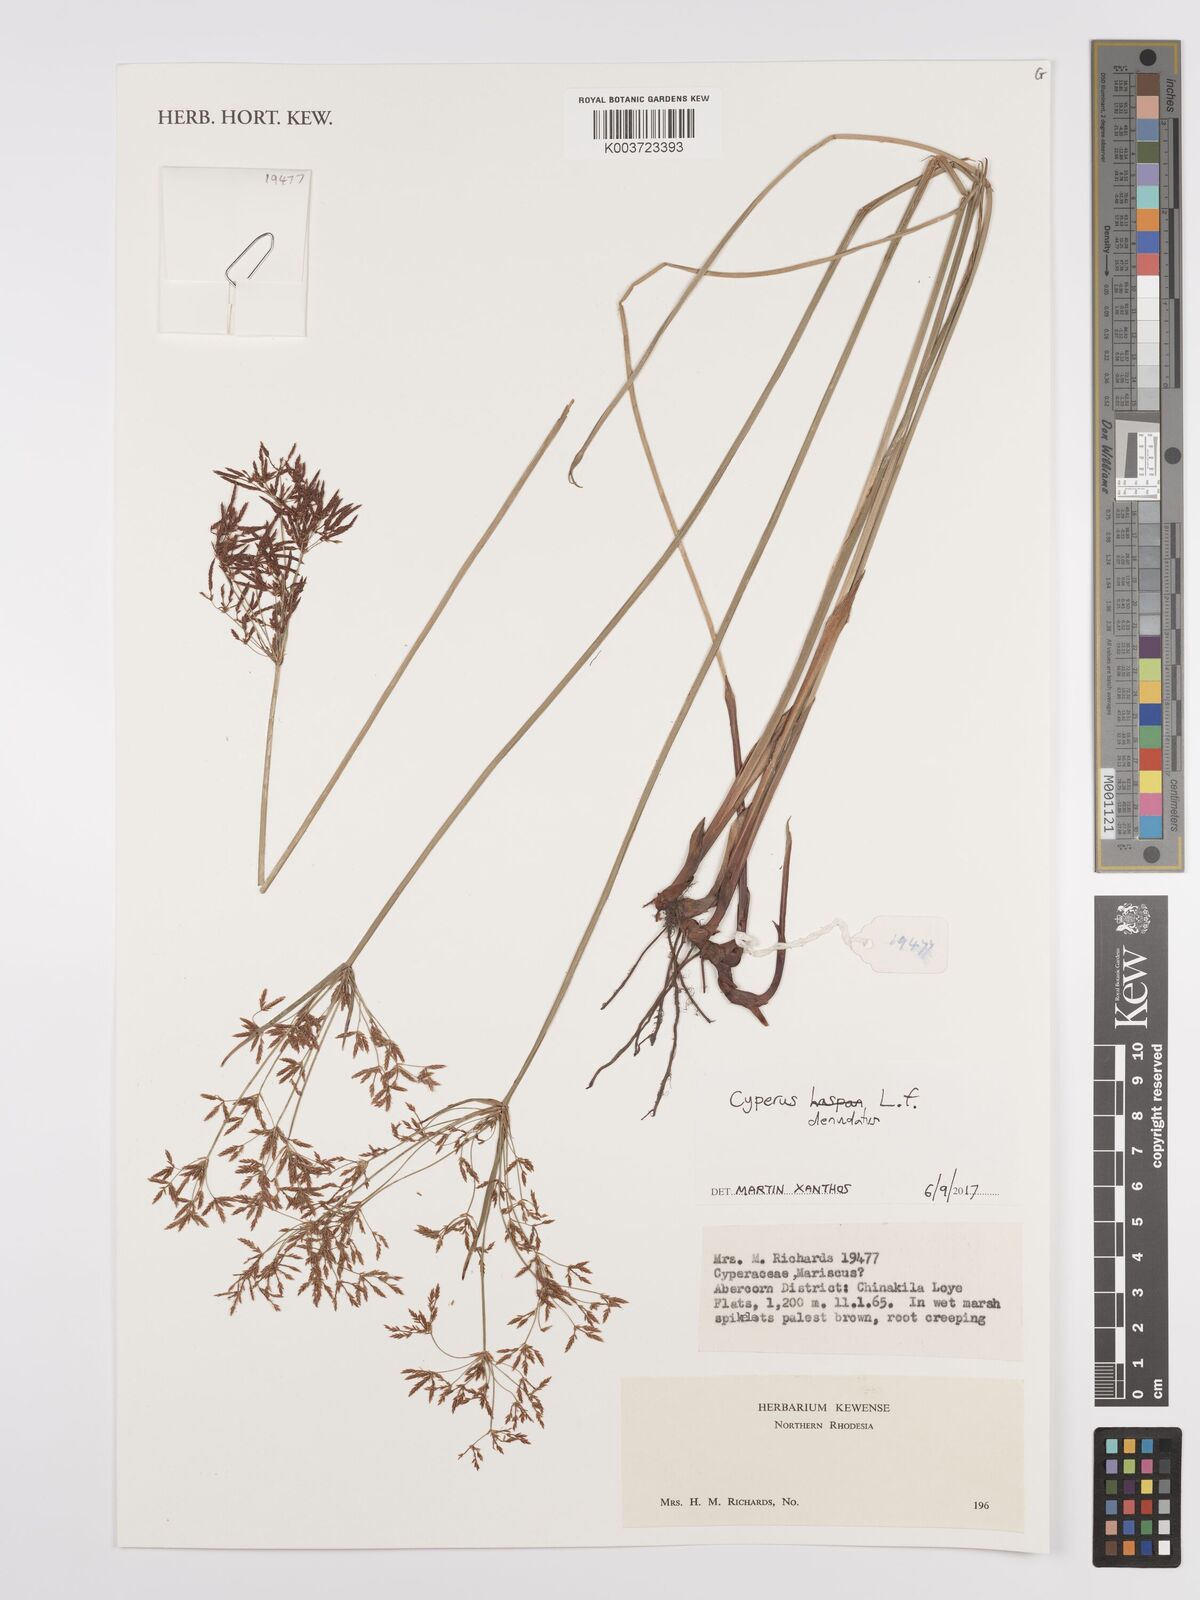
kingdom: Plantae
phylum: Tracheophyta
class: Liliopsida
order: Poales
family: Cyperaceae
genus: Cyperus
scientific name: Cyperus denudatus
